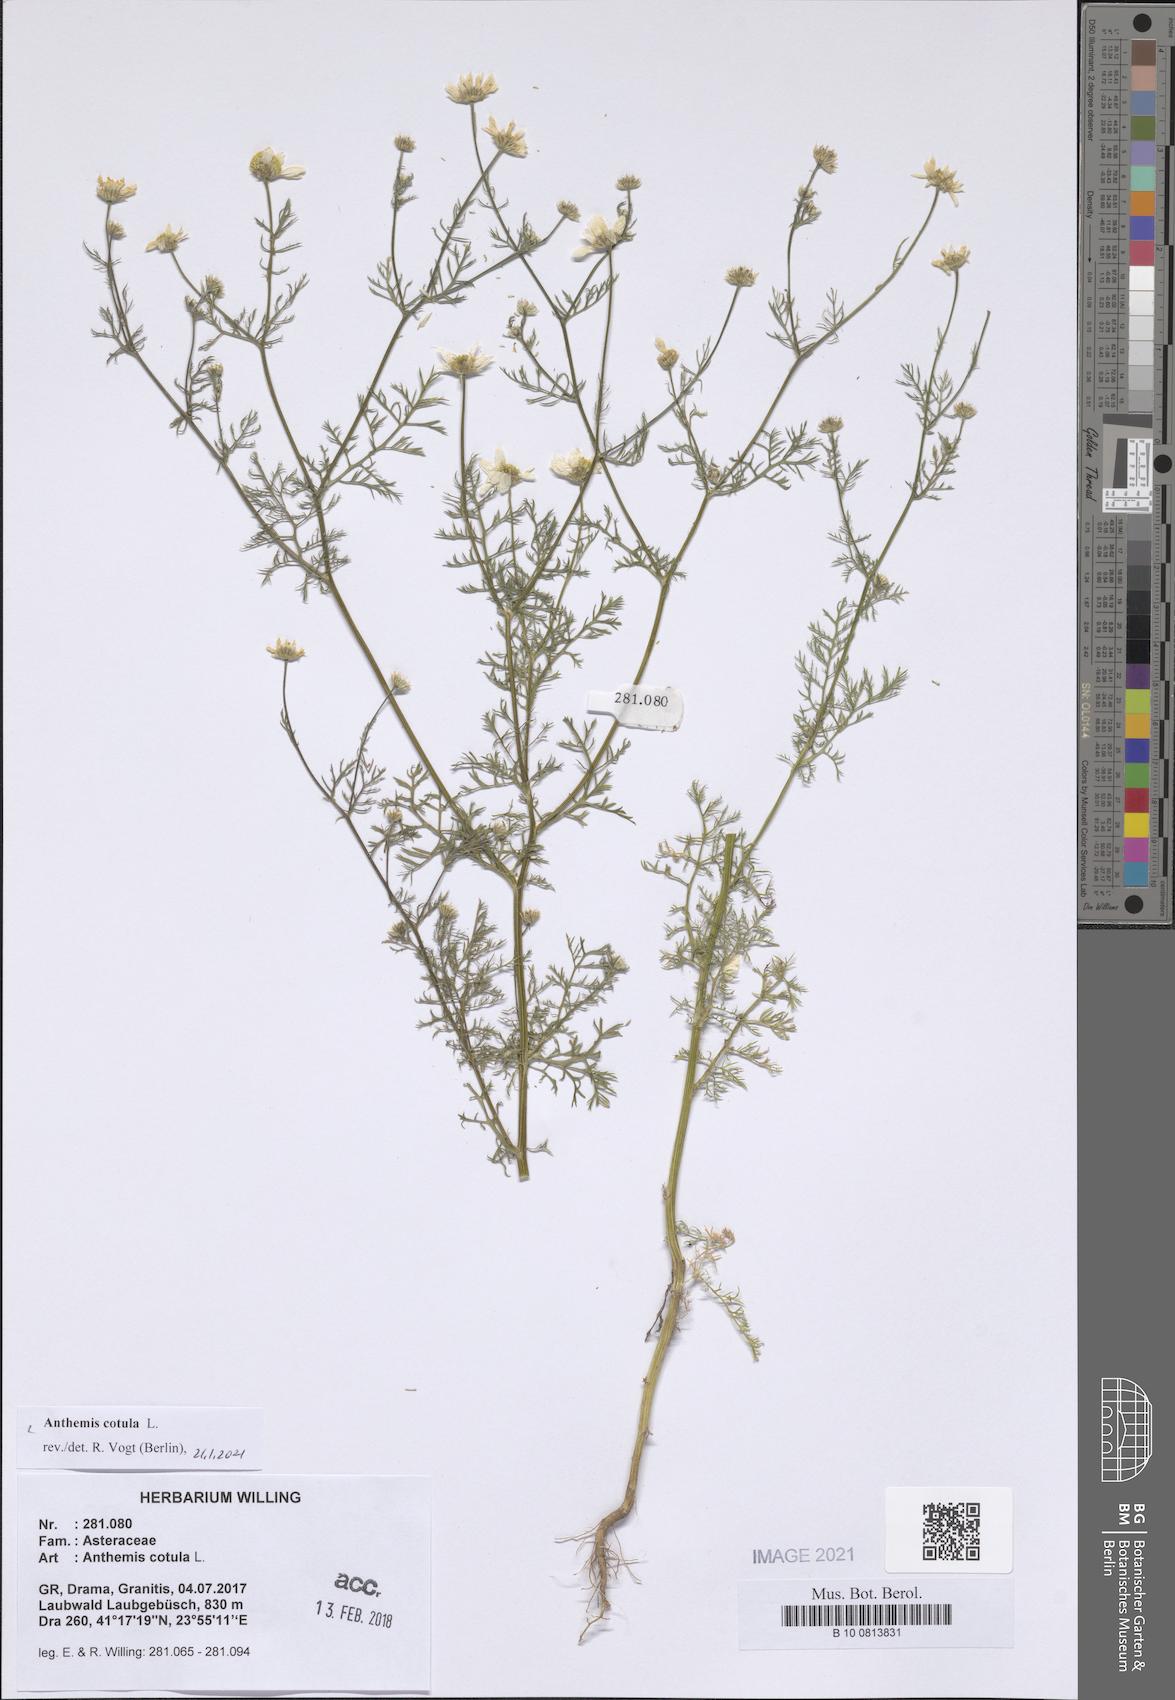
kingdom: Plantae
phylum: Tracheophyta
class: Magnoliopsida
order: Asterales
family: Asteraceae
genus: Anthemis
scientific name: Anthemis cotula
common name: Stinking chamomile
